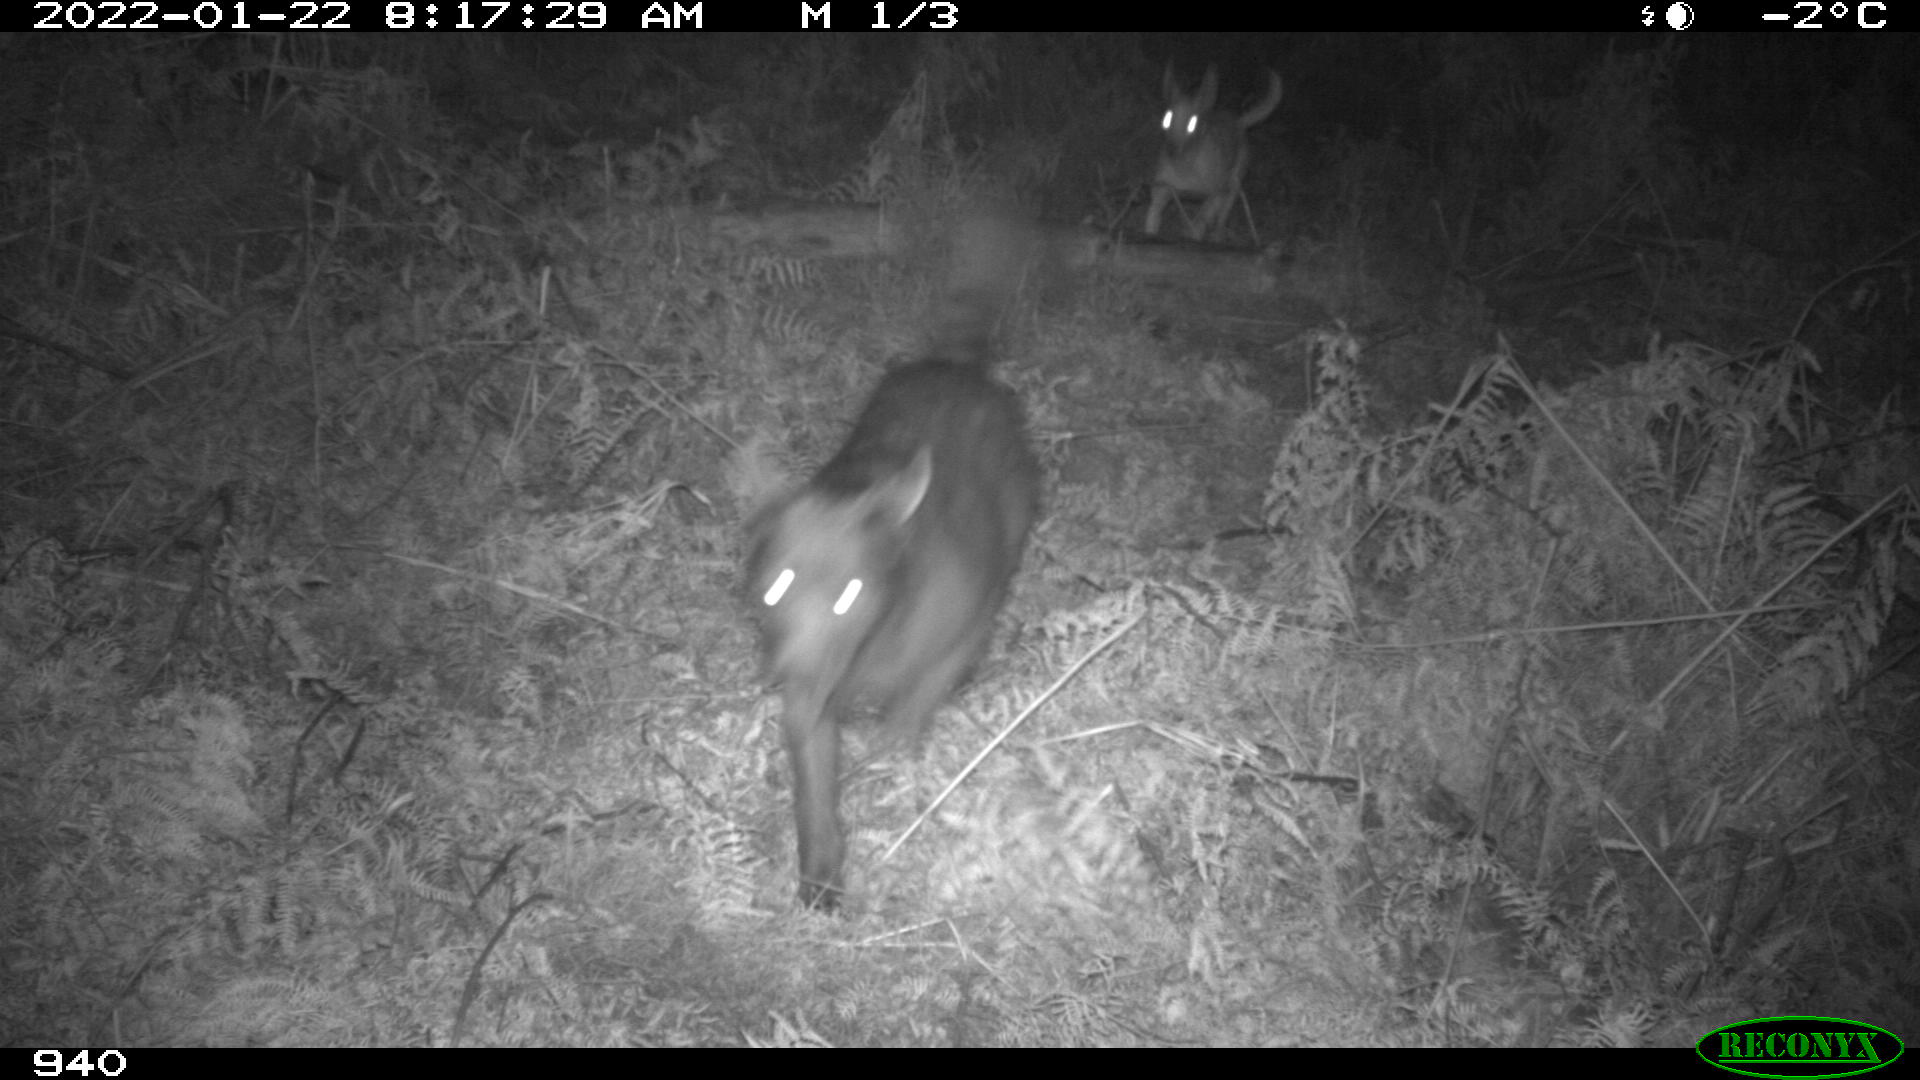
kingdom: Animalia
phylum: Chordata
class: Mammalia
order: Carnivora
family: Canidae
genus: Canis
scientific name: Canis lupus
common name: Gray wolf
